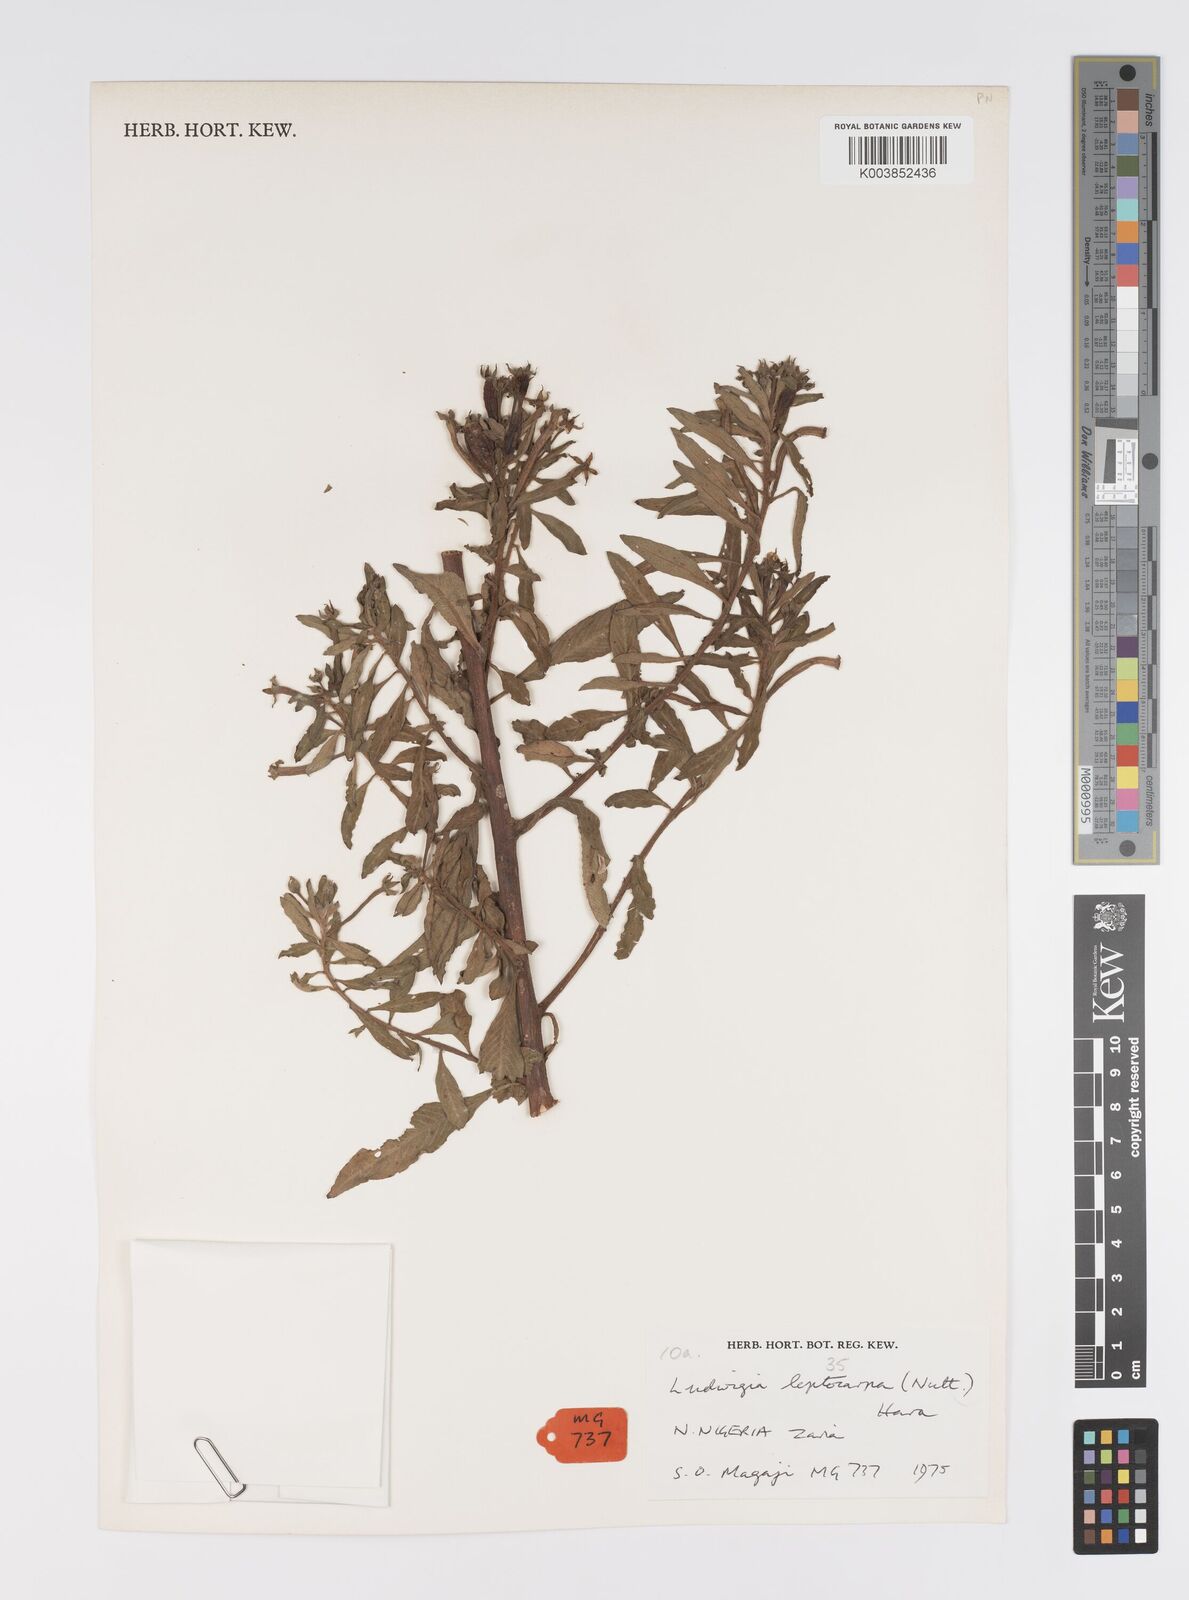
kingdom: Plantae
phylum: Tracheophyta
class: Magnoliopsida
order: Myrtales
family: Onagraceae
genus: Ludwigia
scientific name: Ludwigia leptocarpa
